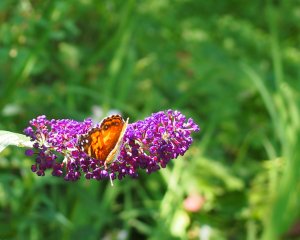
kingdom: Animalia
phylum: Arthropoda
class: Insecta
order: Lepidoptera
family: Nymphalidae
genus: Vanessa
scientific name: Vanessa virginiensis
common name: American Lady
